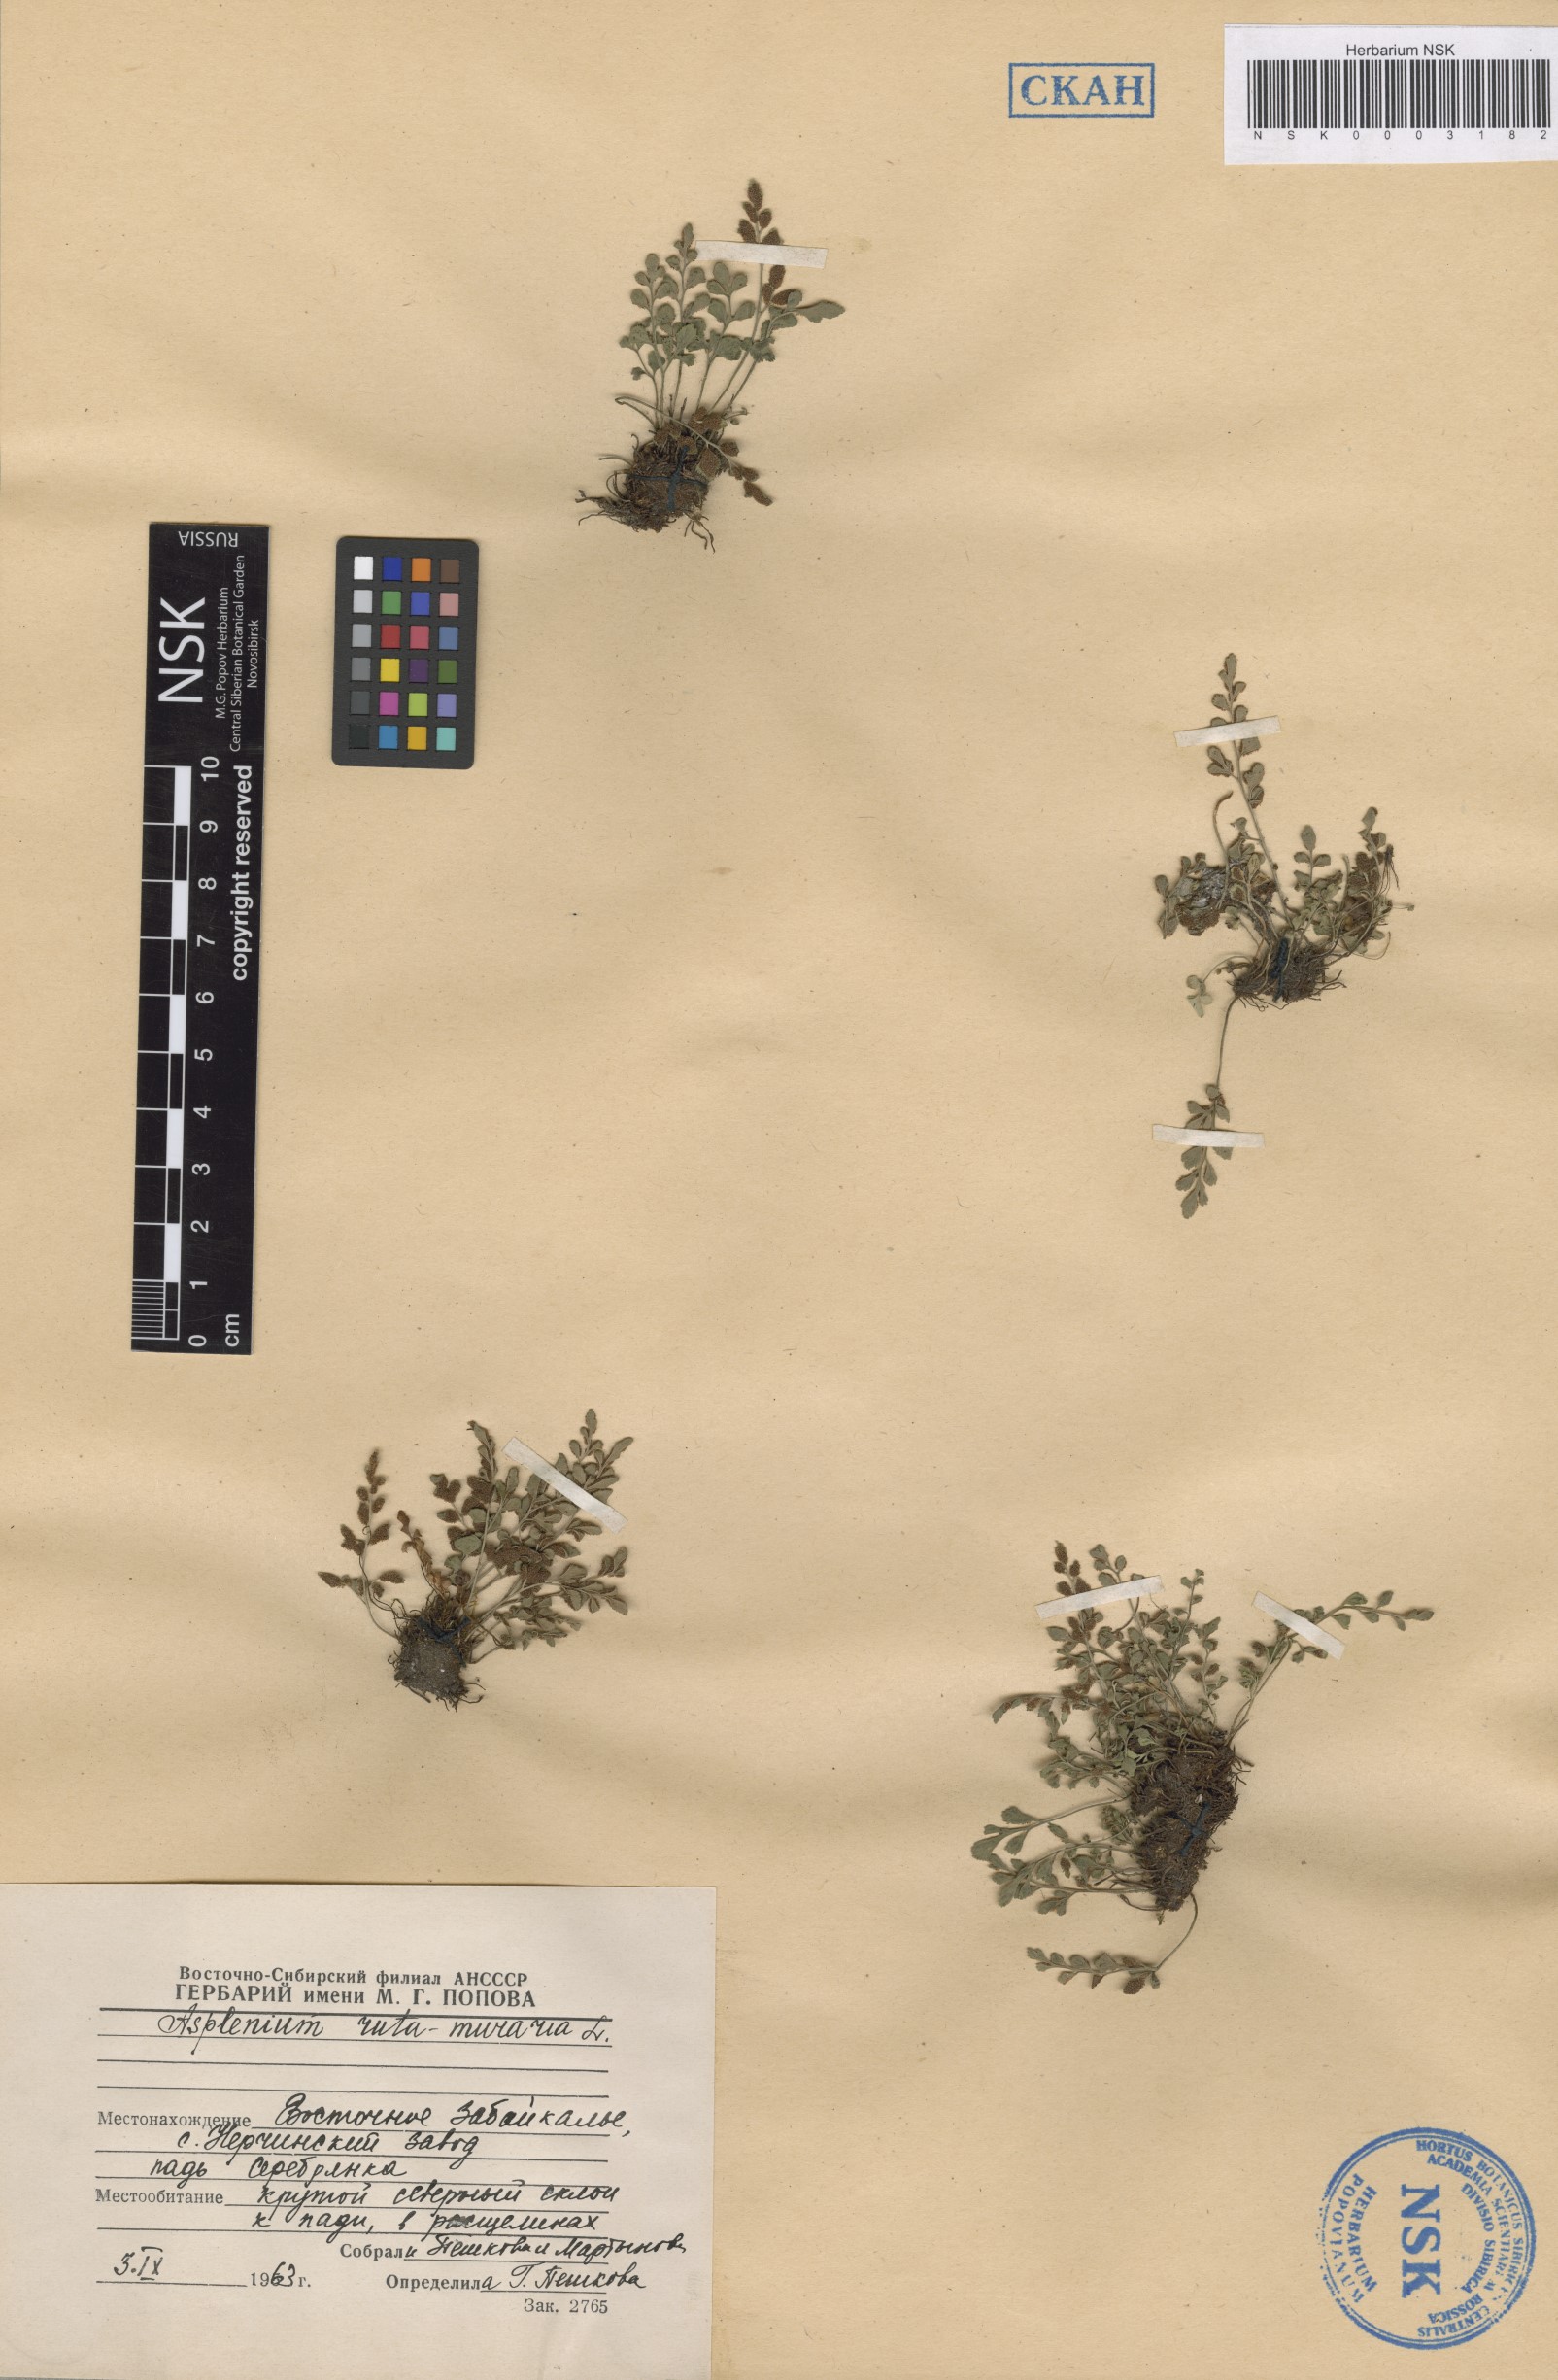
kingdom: Plantae
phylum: Tracheophyta
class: Polypodiopsida
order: Polypodiales
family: Aspleniaceae
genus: Asplenium
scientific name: Asplenium ruta-muraria
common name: Wall-rue
